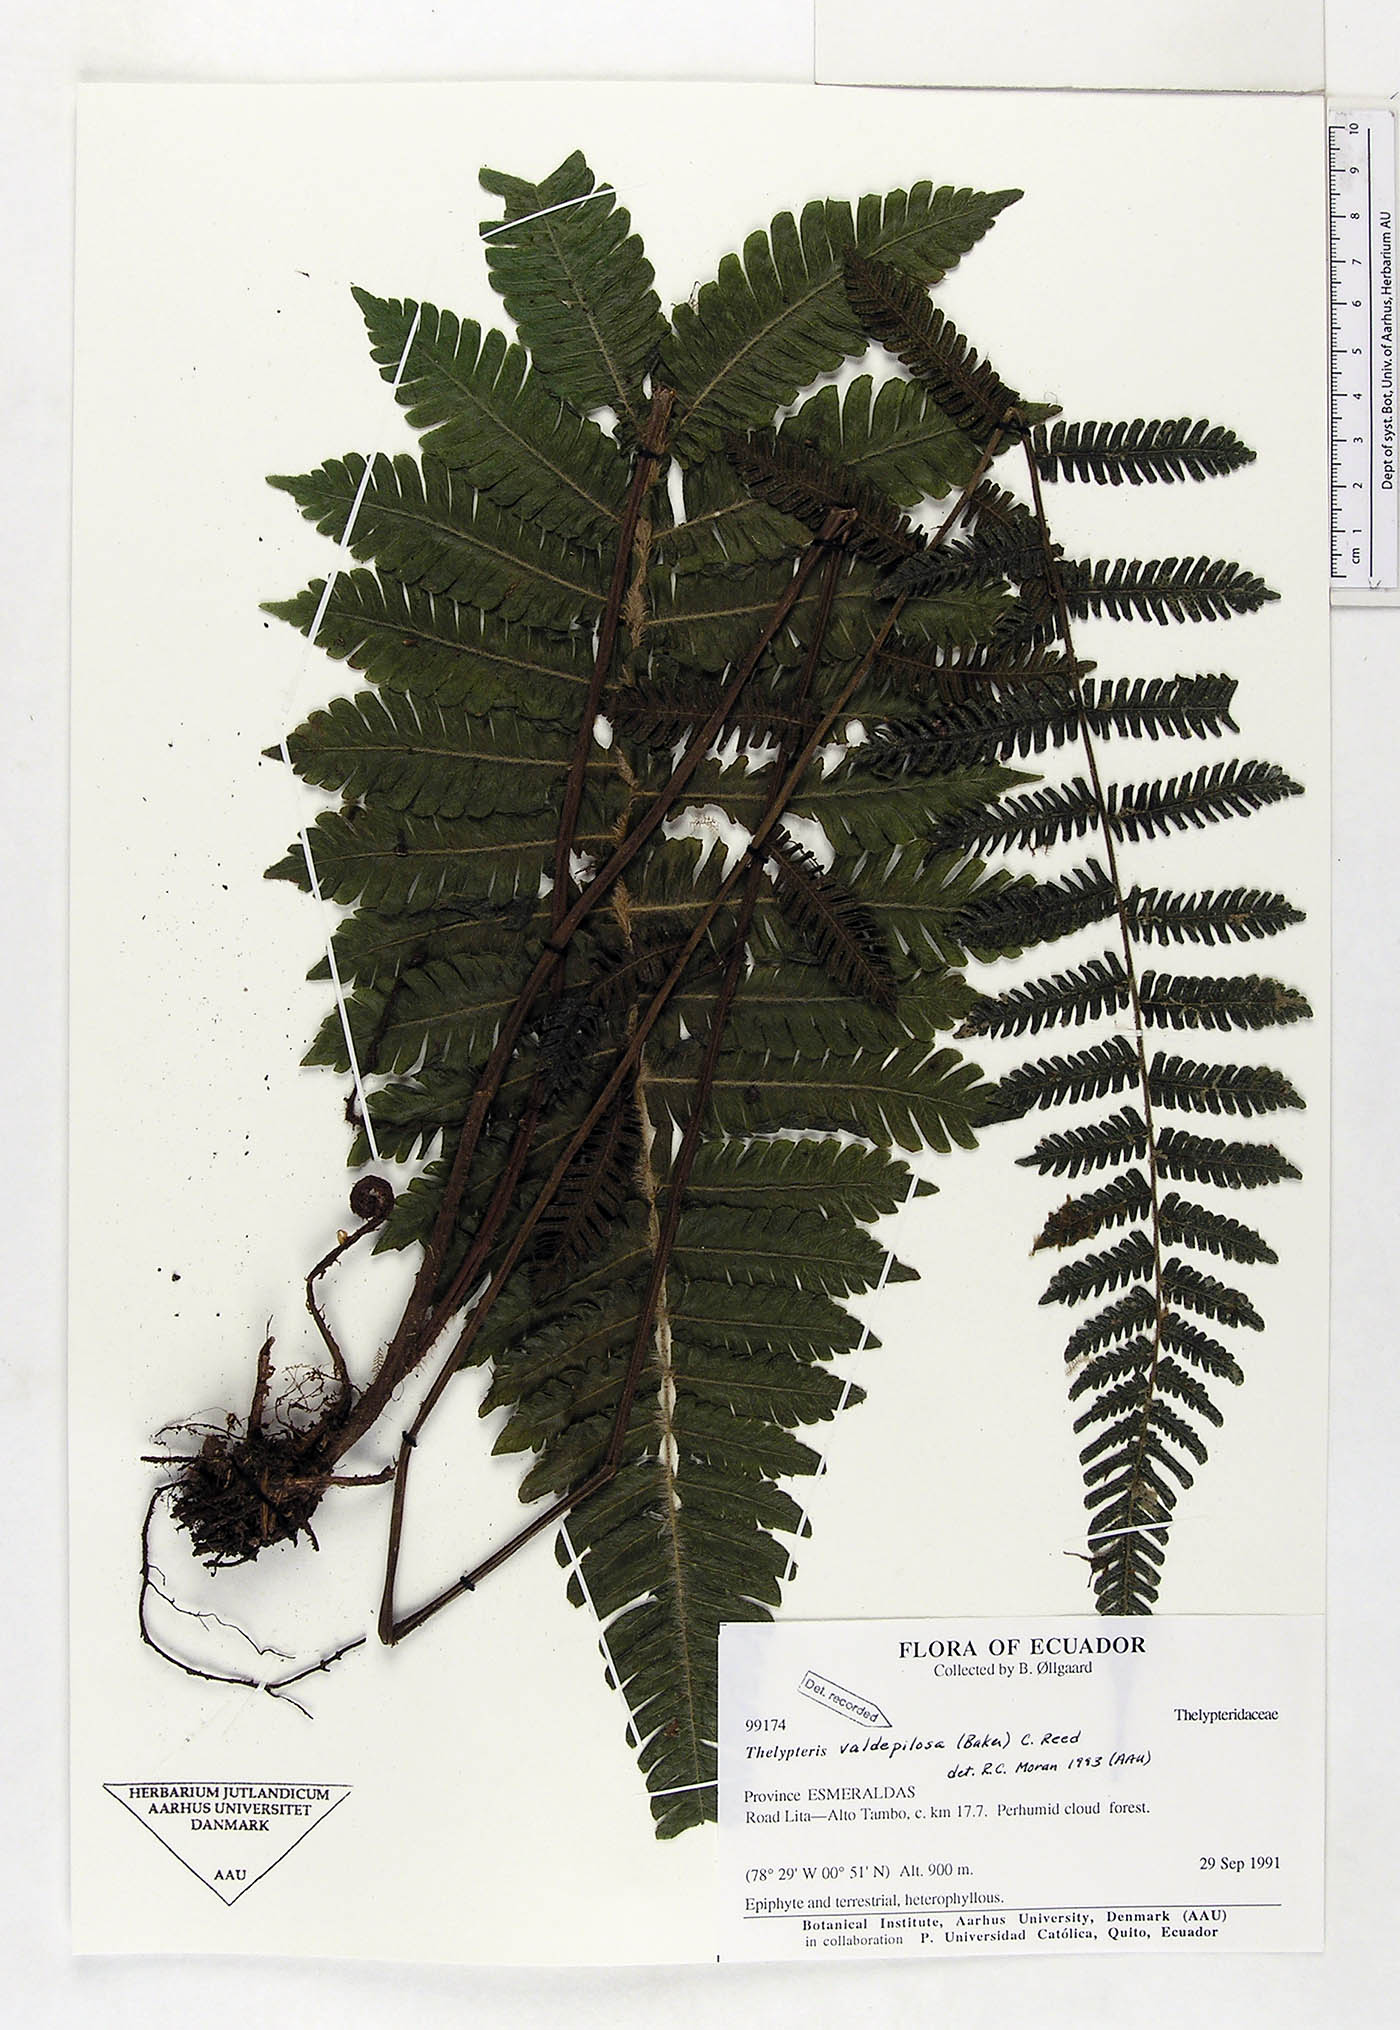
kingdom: Plantae
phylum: Tracheophyta
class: Polypodiopsida
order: Polypodiales
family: Thelypteridaceae
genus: Steiropteris
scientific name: Steiropteris valdepilosa
